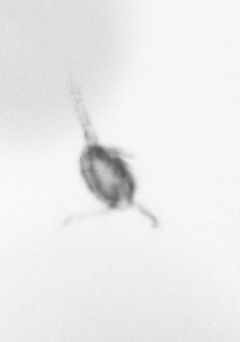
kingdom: Animalia
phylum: Arthropoda
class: Copepoda
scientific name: Copepoda
